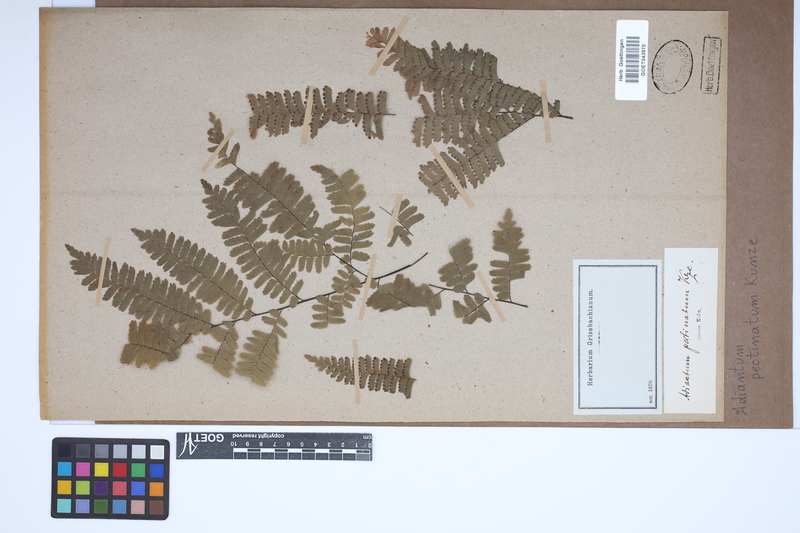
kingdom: Plantae
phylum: Tracheophyta
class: Polypodiopsida
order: Polypodiales
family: Pteridaceae
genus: Adiantum
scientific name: Adiantum pectinatum
